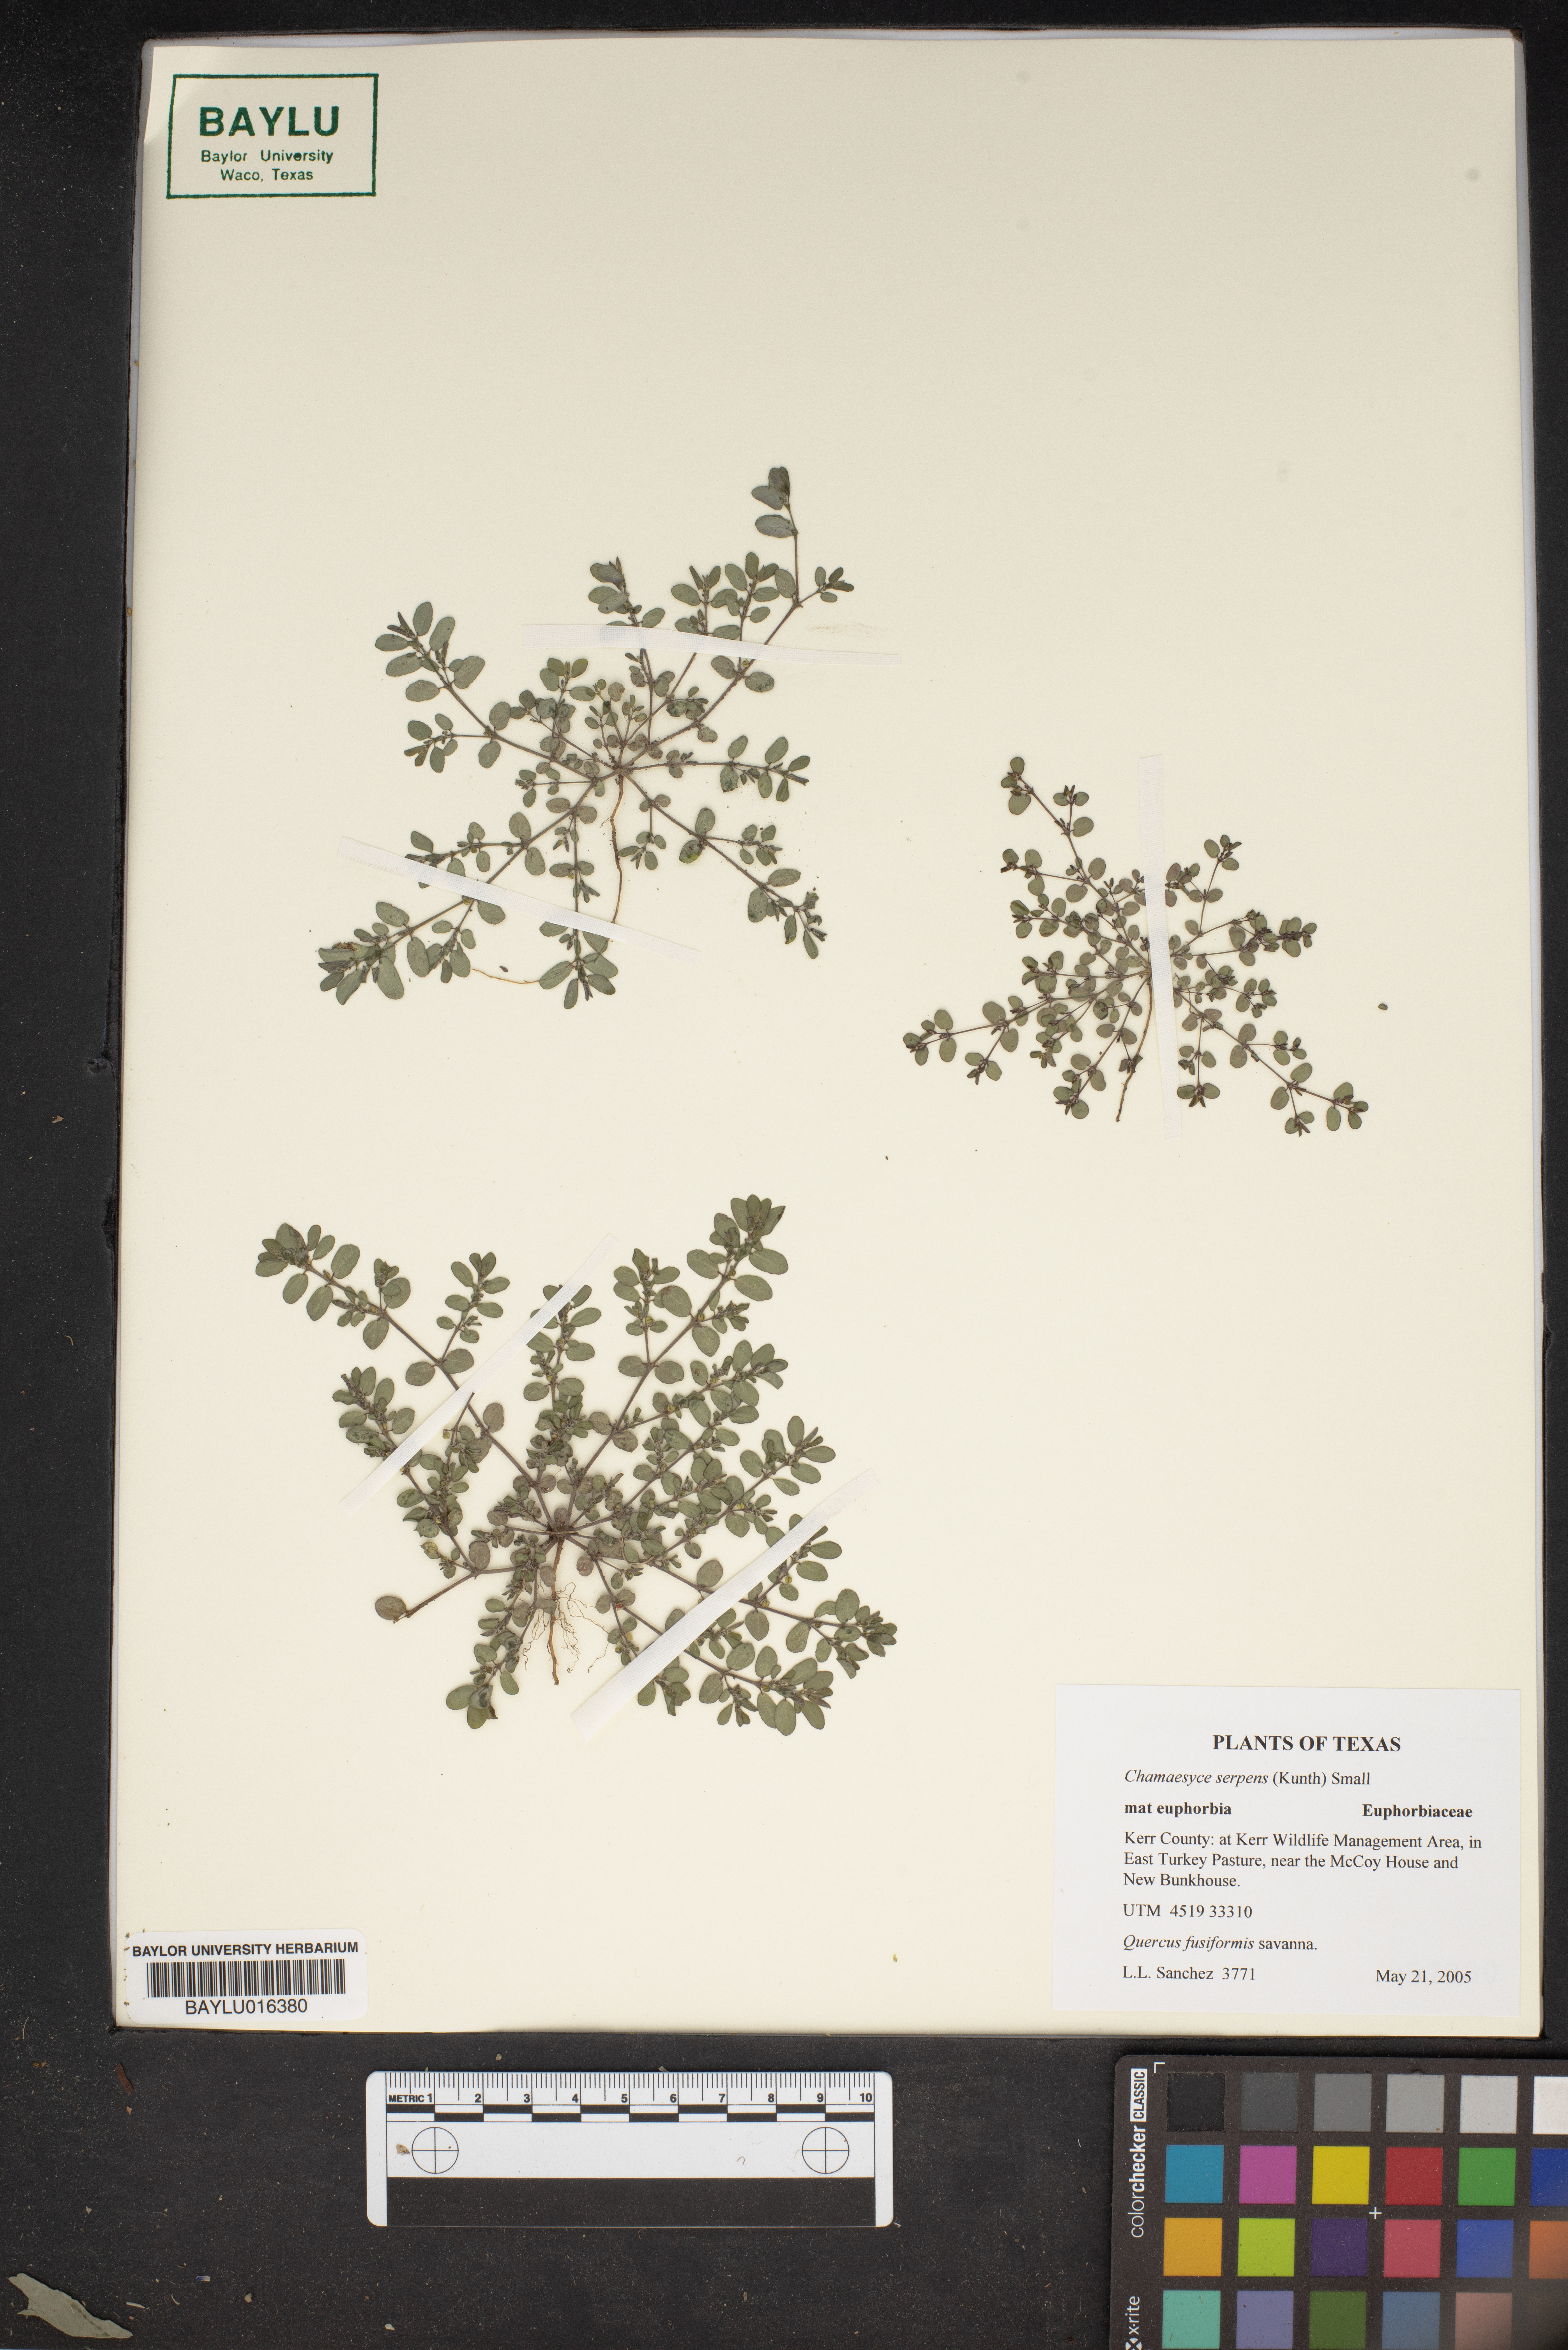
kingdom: Plantae
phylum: Tracheophyta
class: Magnoliopsida
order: Malpighiales
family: Euphorbiaceae
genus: Euphorbia
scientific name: Euphorbia serpens
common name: Matted sandmat
